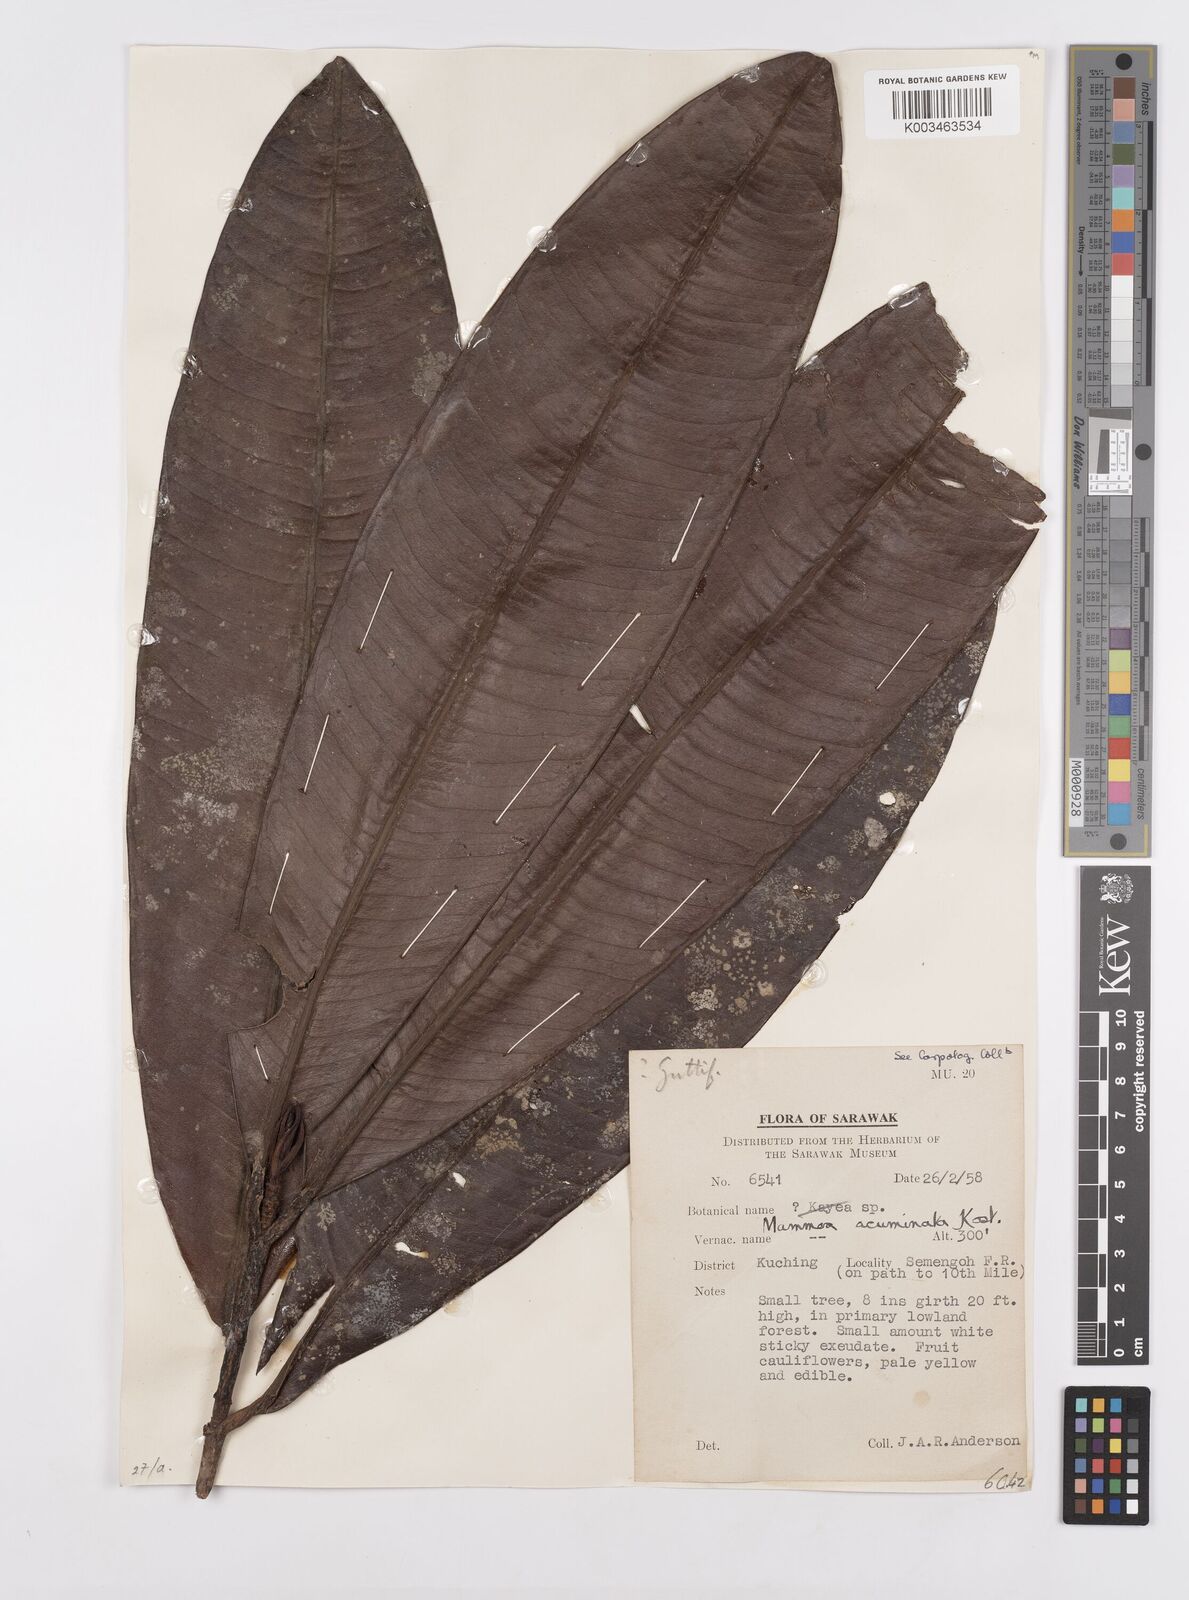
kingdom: Plantae
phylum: Tracheophyta
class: Magnoliopsida
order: Malpighiales
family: Calophyllaceae
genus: Mammea
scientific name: Mammea acuminata
